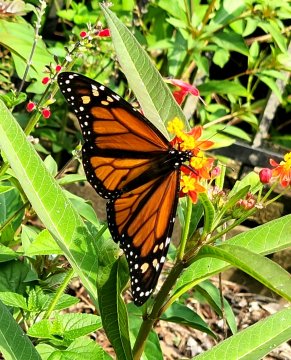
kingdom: Animalia
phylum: Arthropoda
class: Insecta
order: Lepidoptera
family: Nymphalidae
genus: Danaus
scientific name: Danaus plexippus
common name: Monarch
